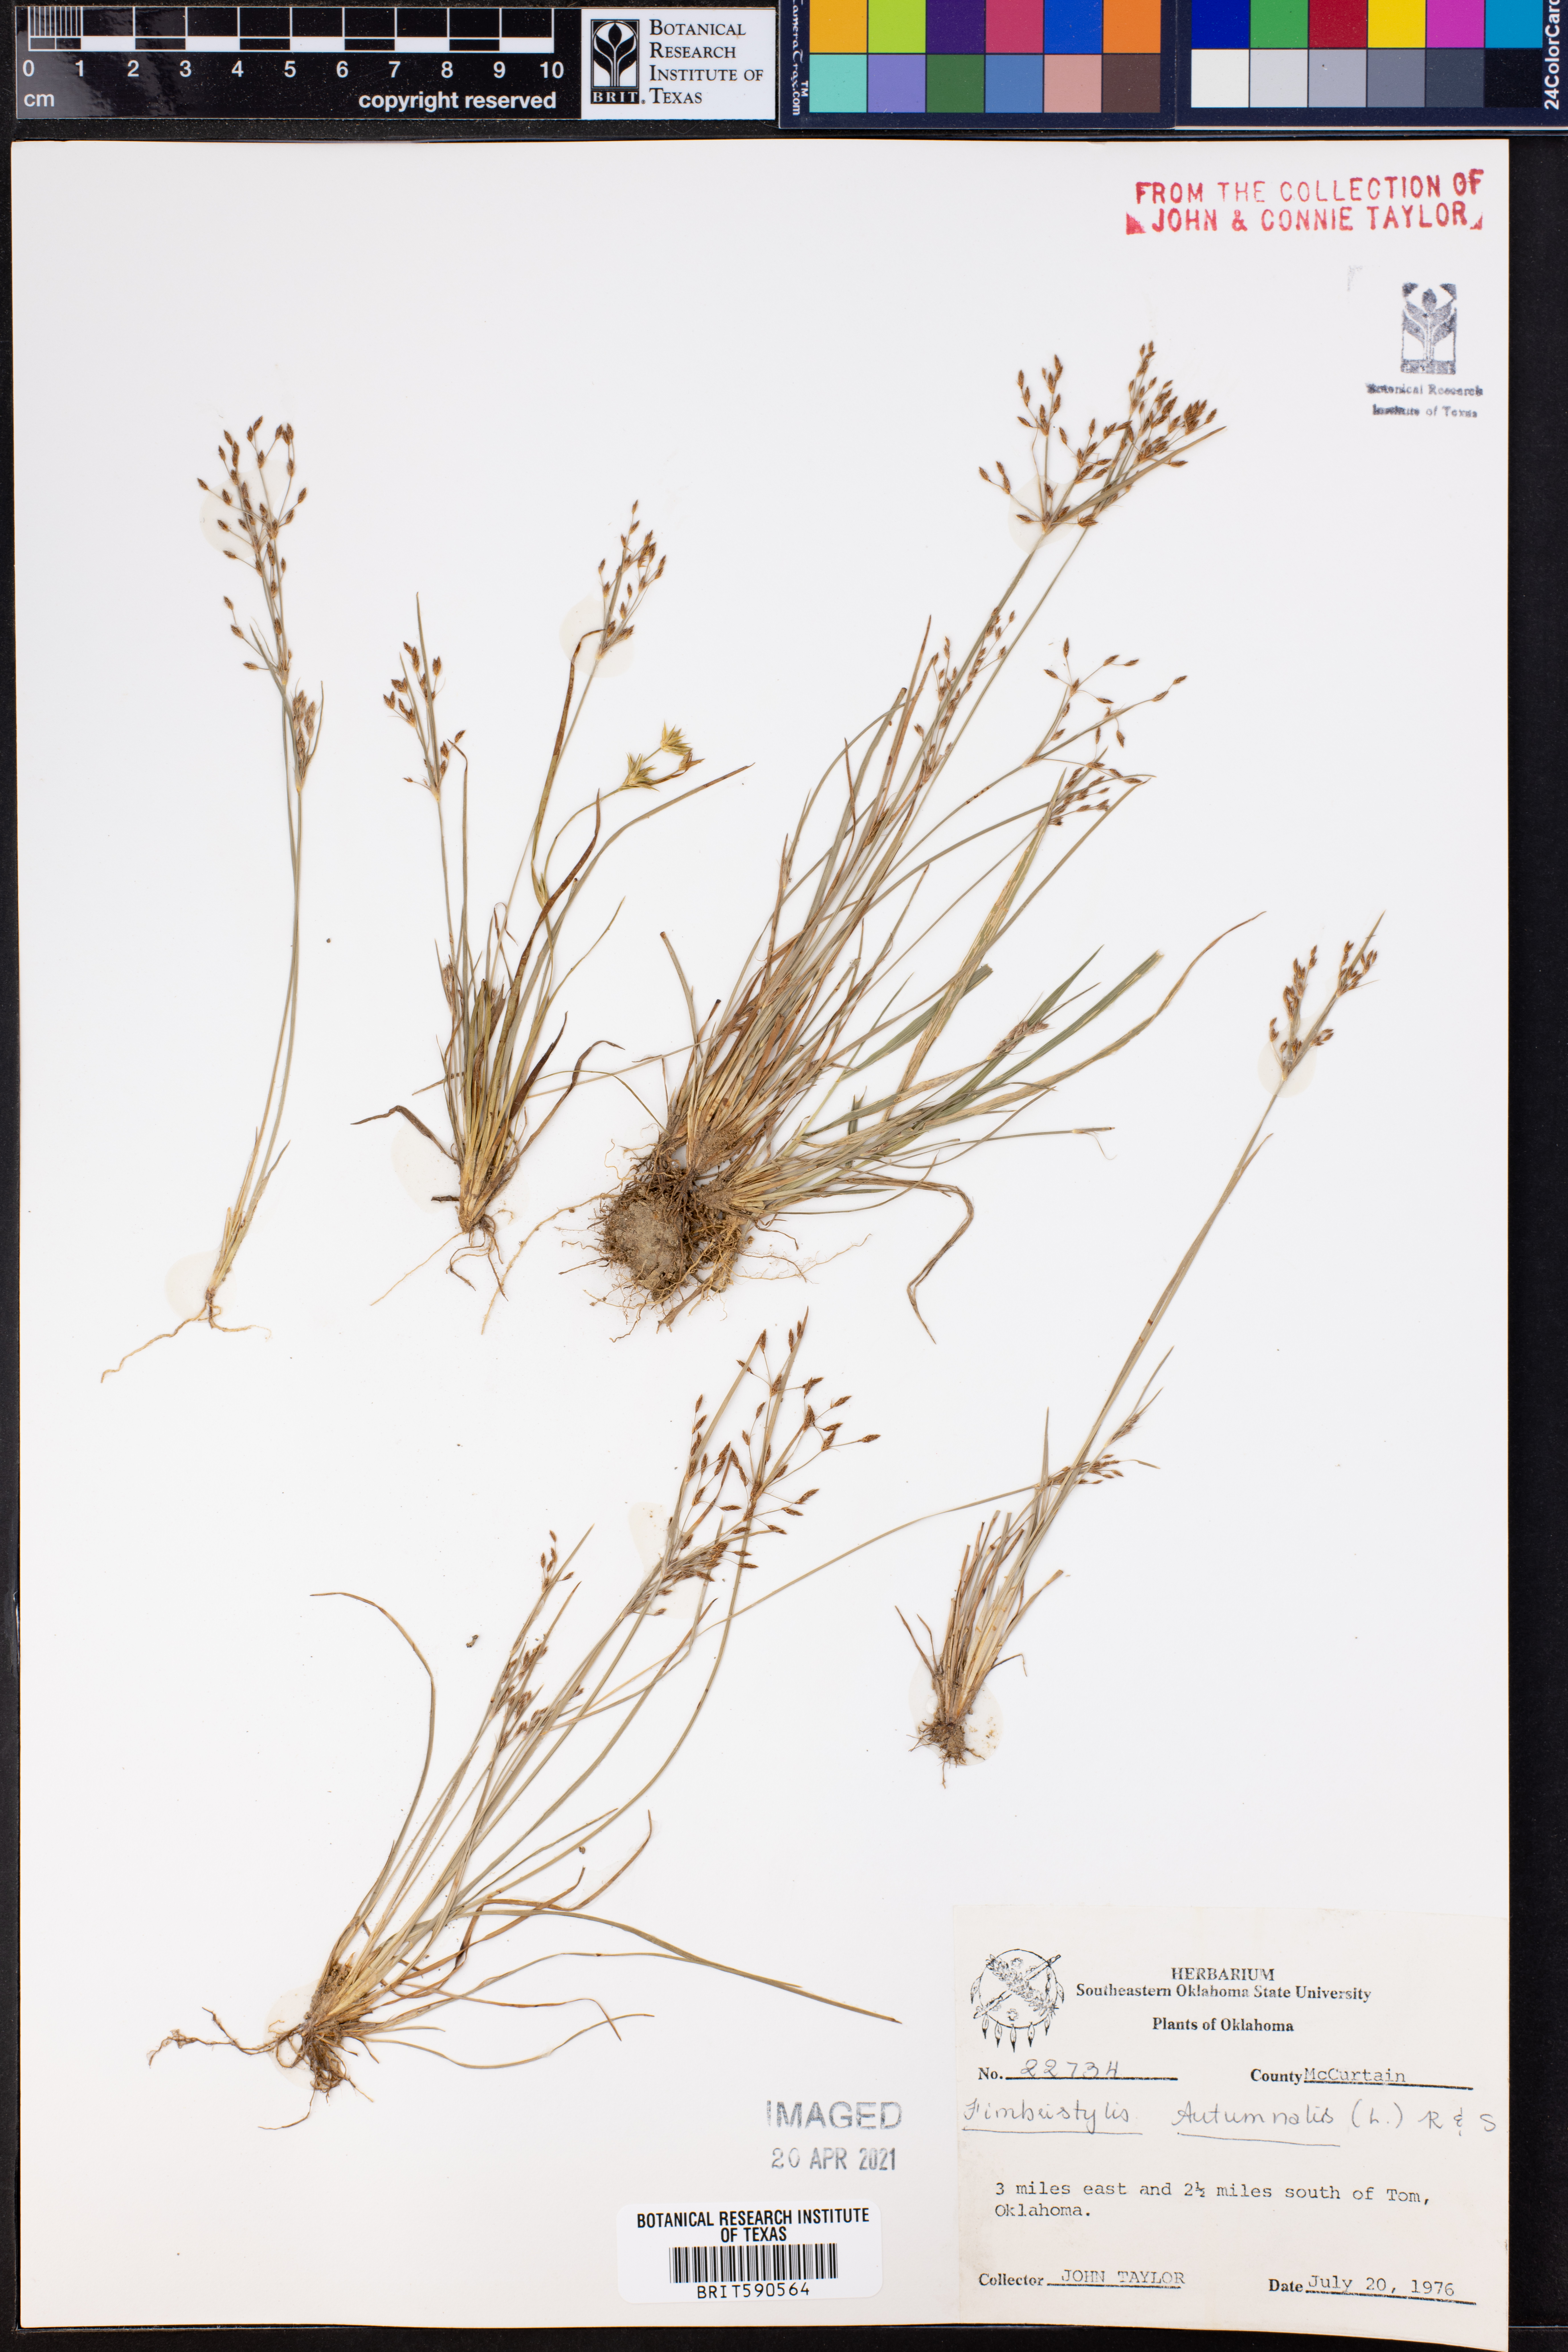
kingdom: Plantae
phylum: Tracheophyta
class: Liliopsida
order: Poales
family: Cyperaceae
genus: Fimbristylis
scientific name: Fimbristylis autumnalis
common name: Slender fimbristylis
